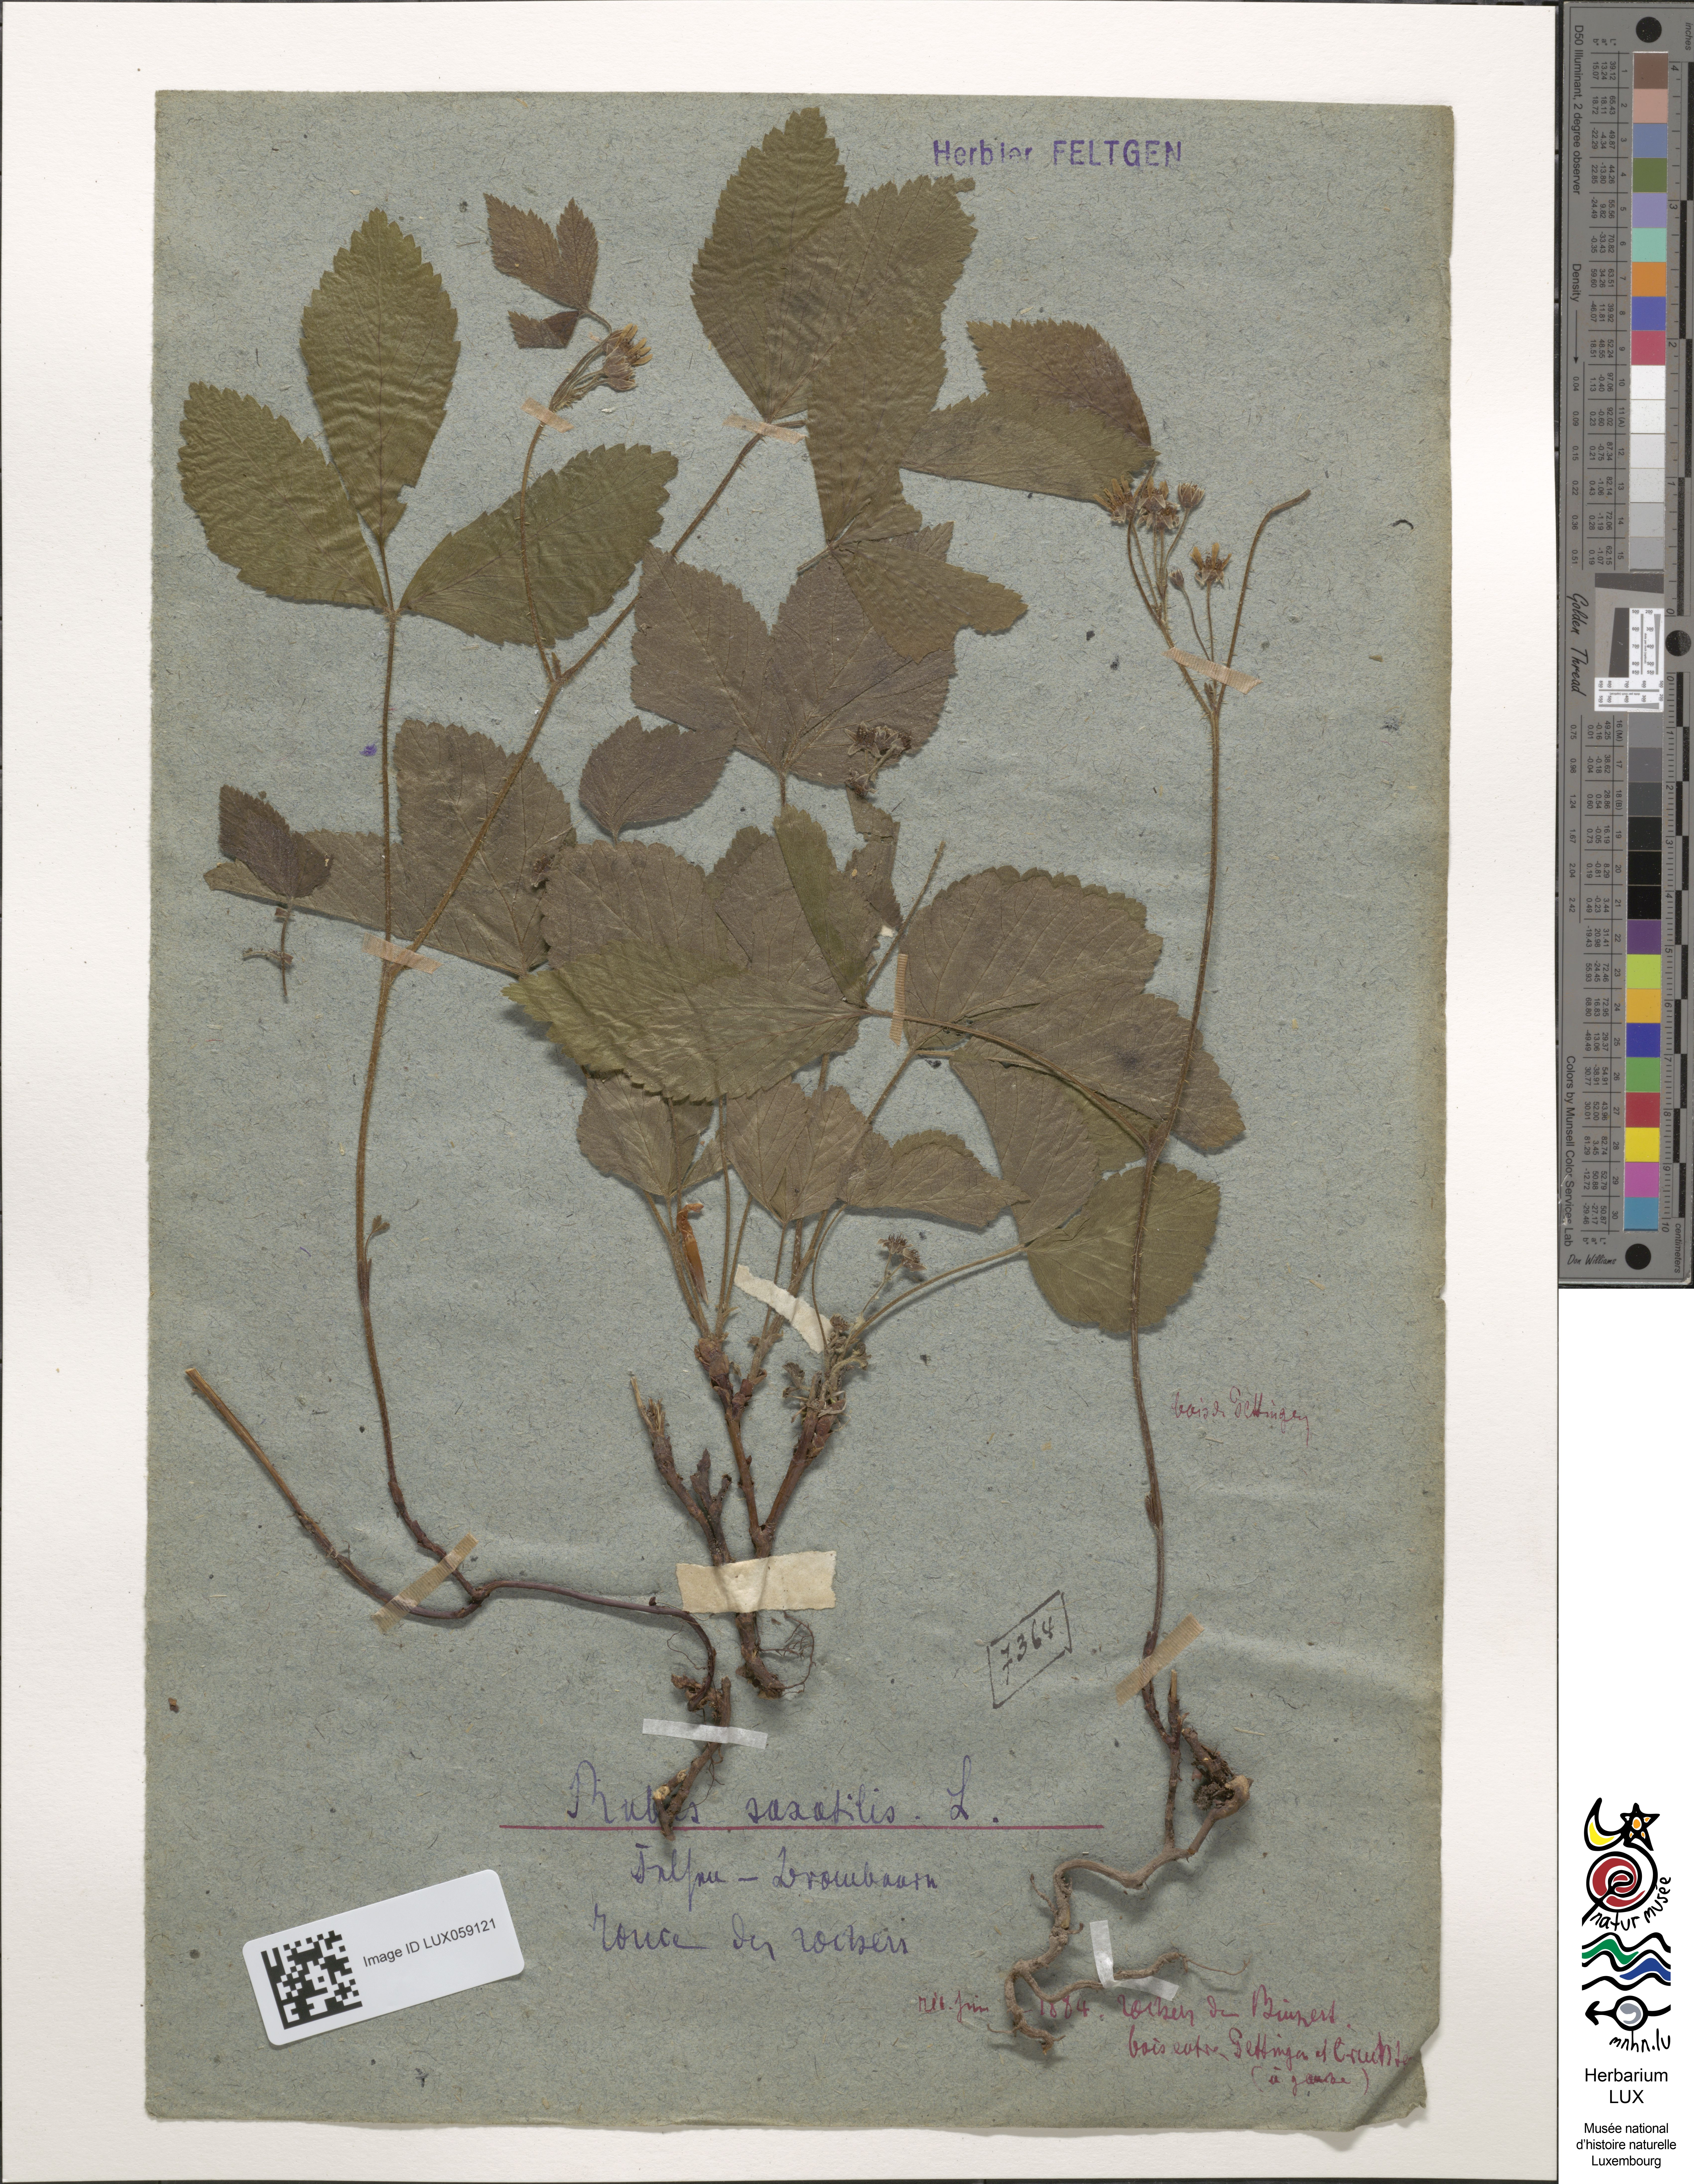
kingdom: Plantae
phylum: Tracheophyta
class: Magnoliopsida
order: Rosales
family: Rosaceae
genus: Rubus
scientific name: Rubus saxatilis
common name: Stone bramble
